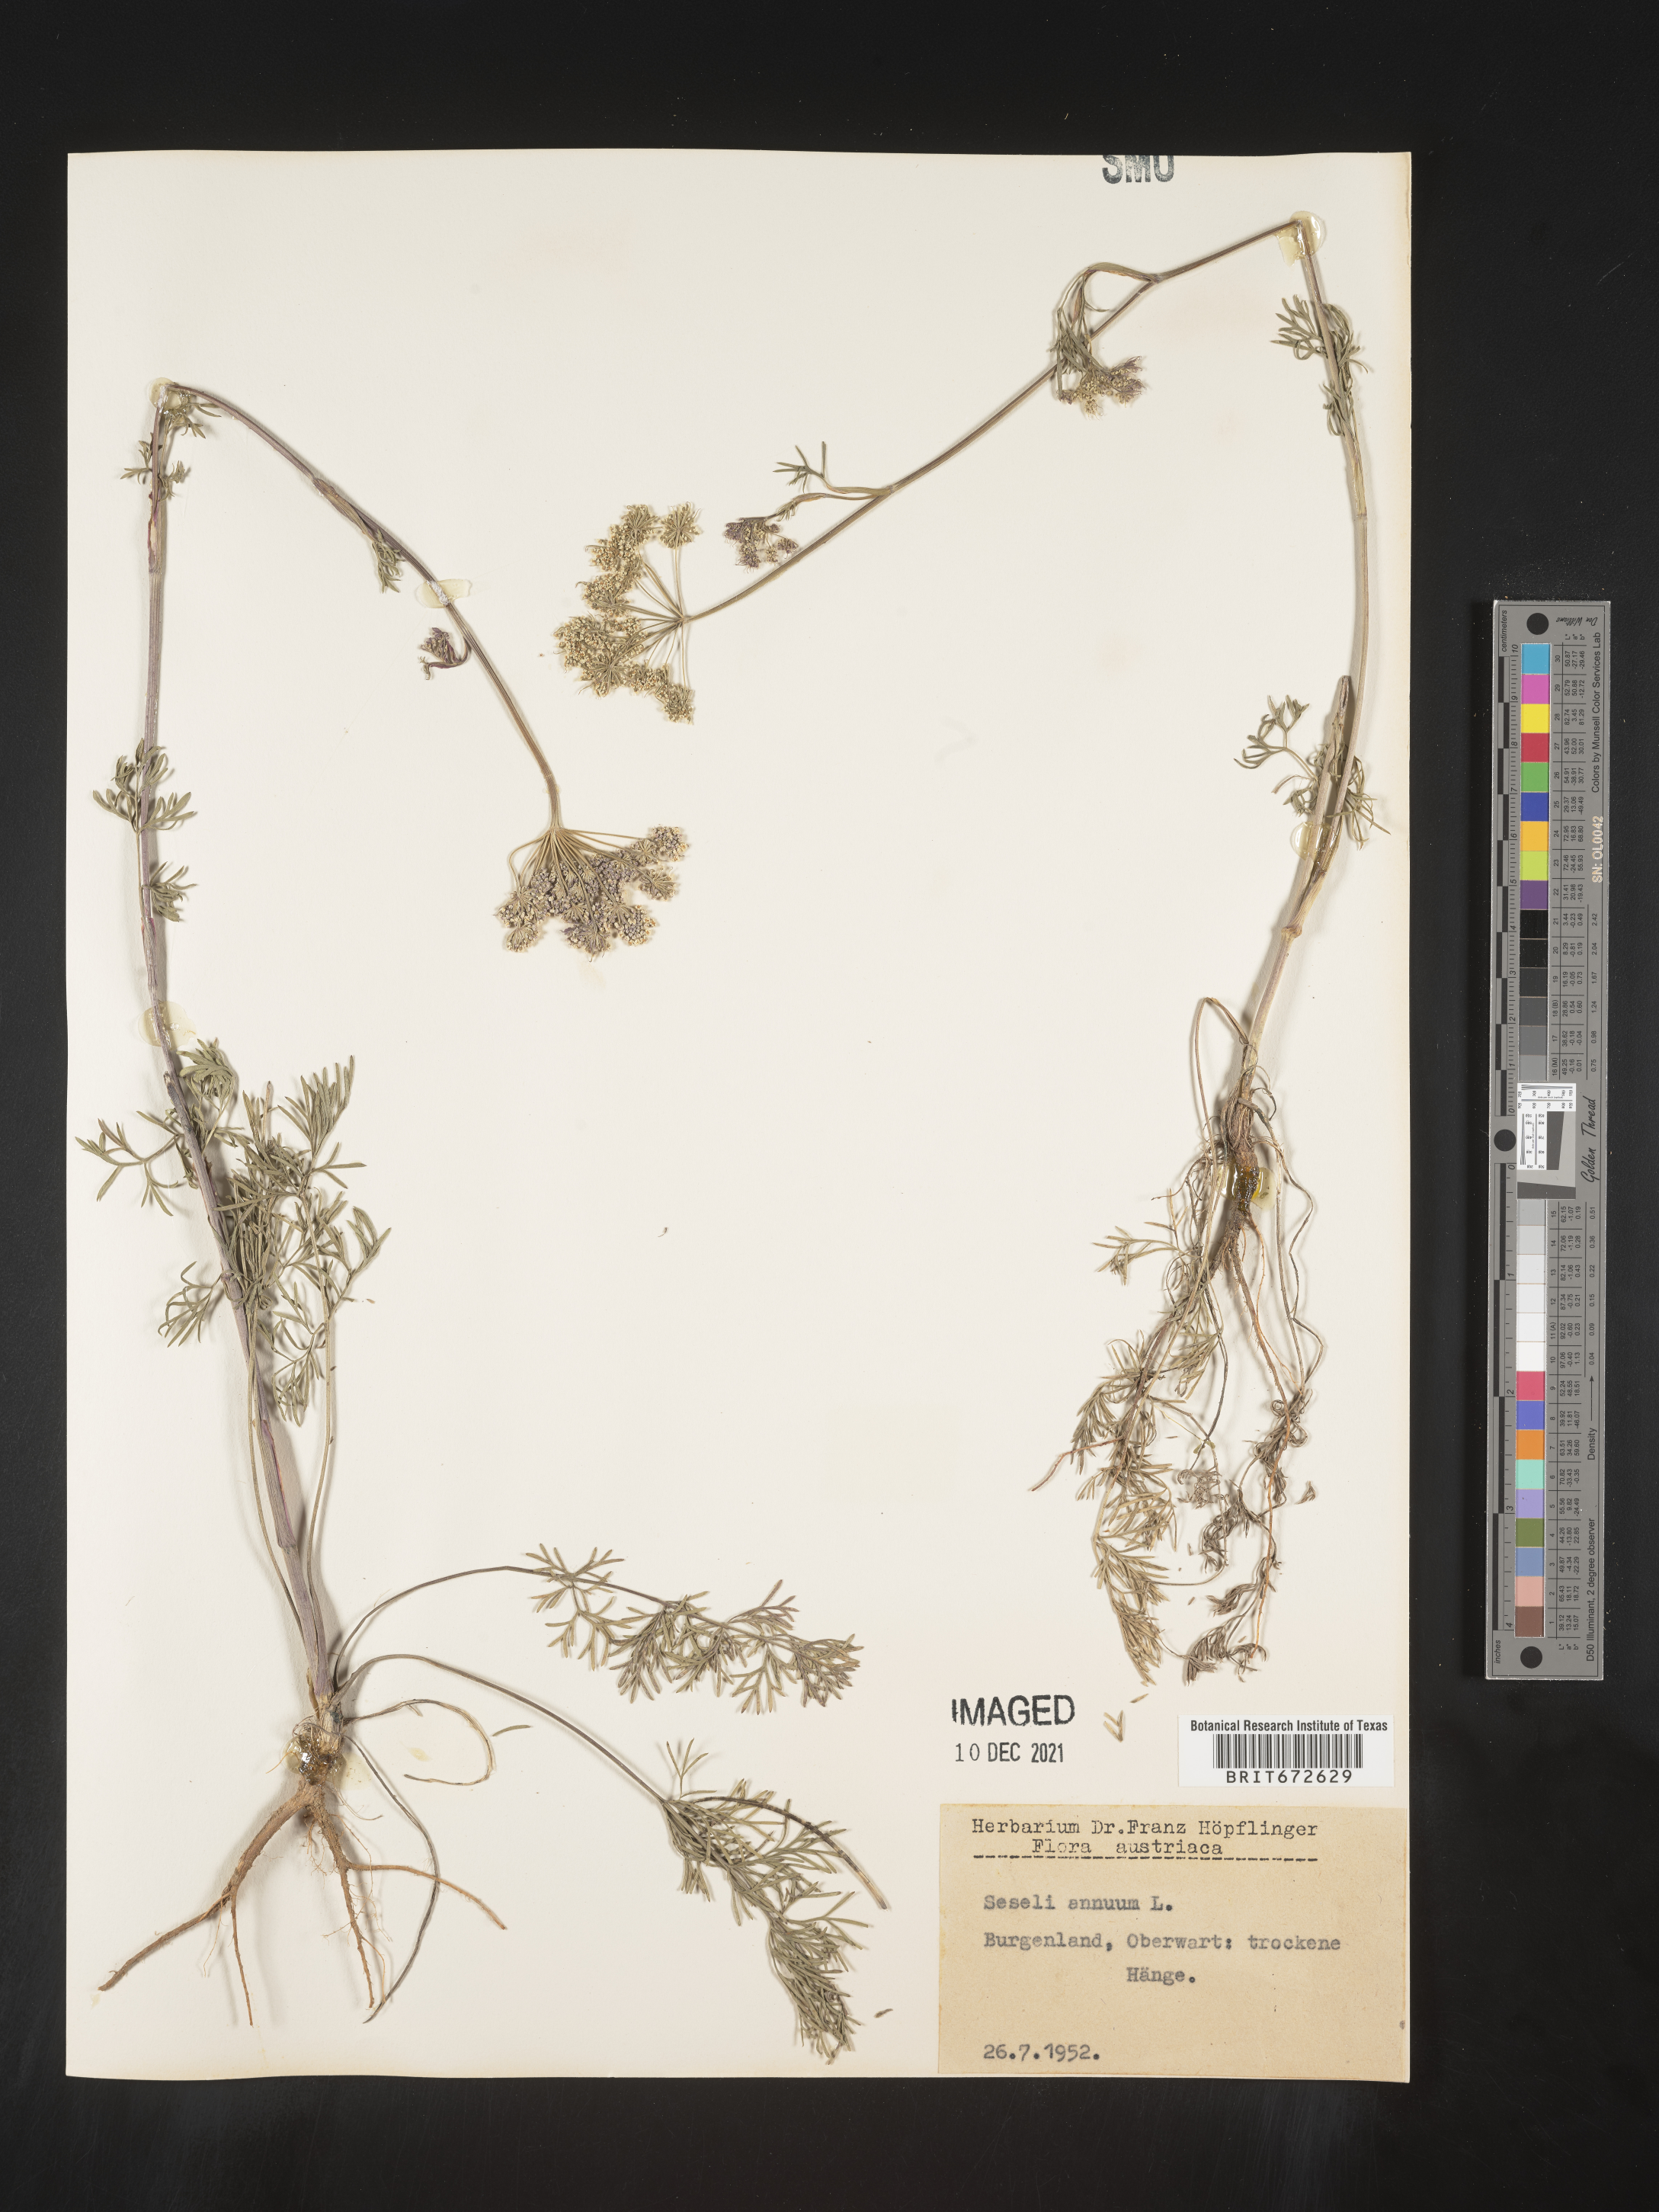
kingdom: Plantae
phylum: Tracheophyta
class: Magnoliopsida
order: Apiales
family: Apiaceae
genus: Seseli
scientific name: Seseli
